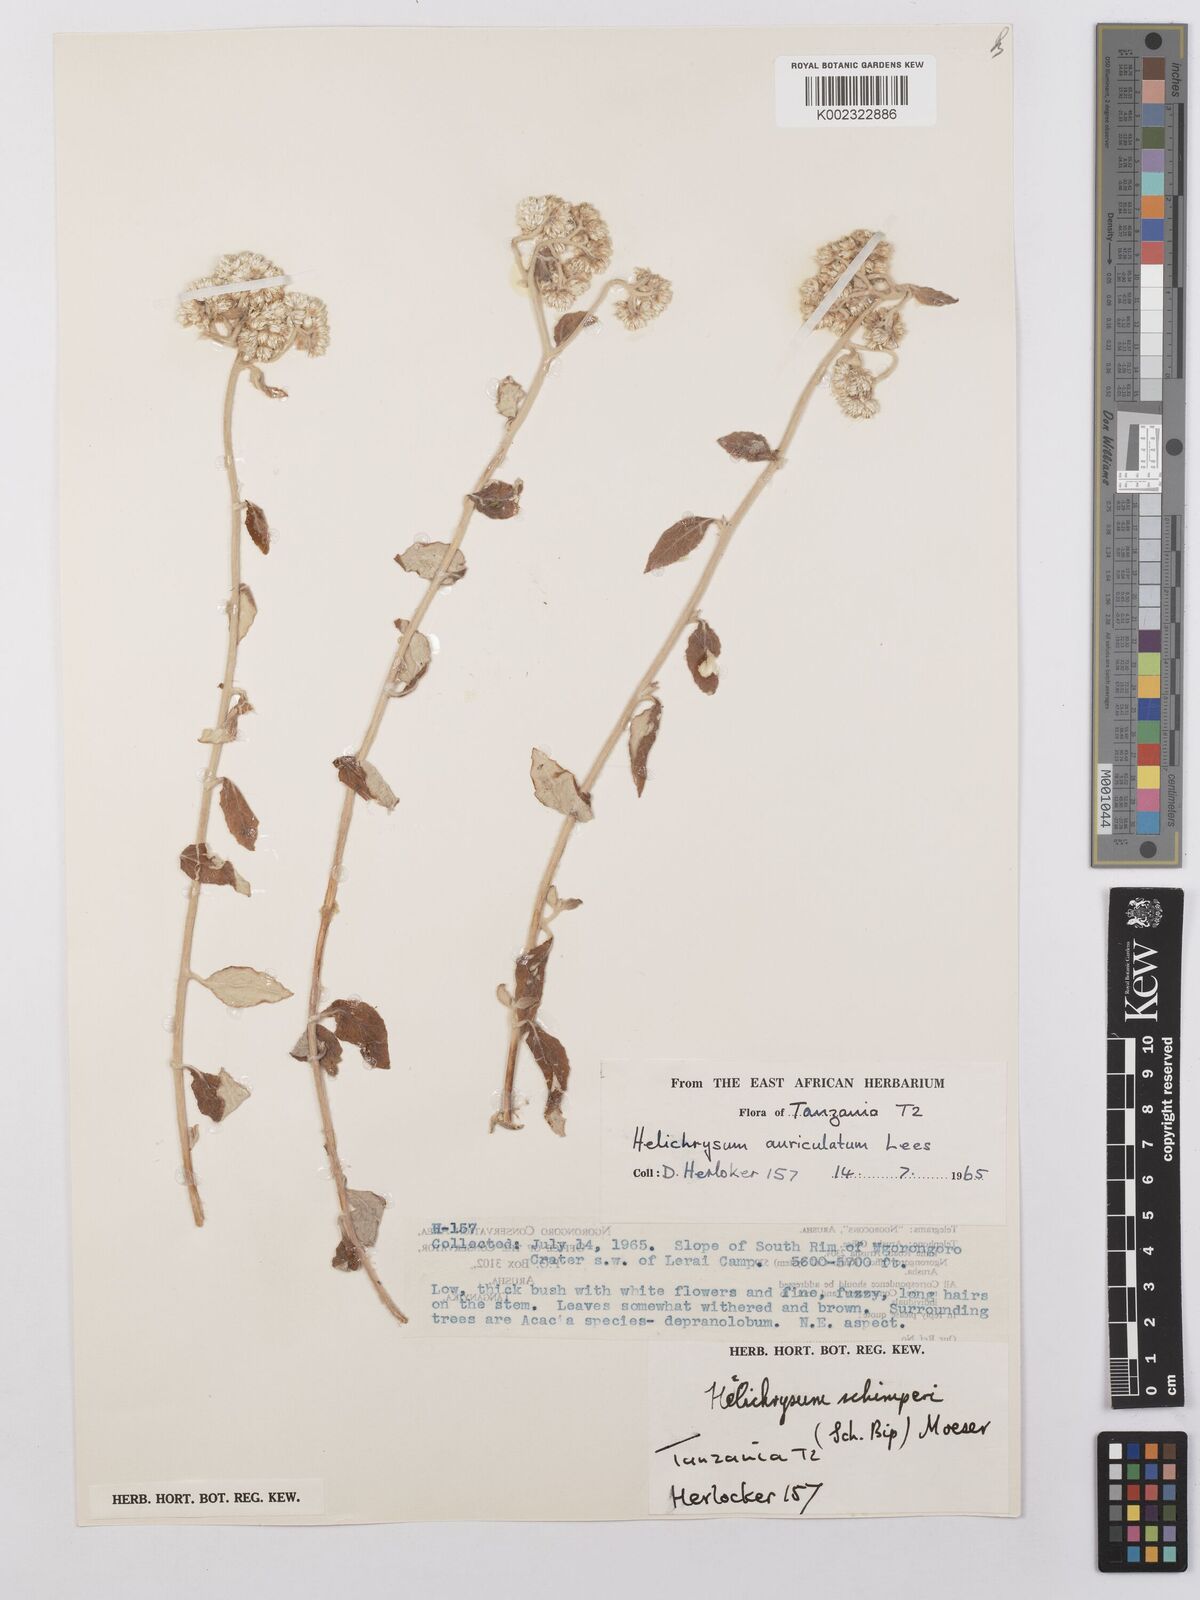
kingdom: Plantae
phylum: Tracheophyta
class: Magnoliopsida
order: Asterales
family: Asteraceae
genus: Helichrysum
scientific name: Helichrysum schimperi
